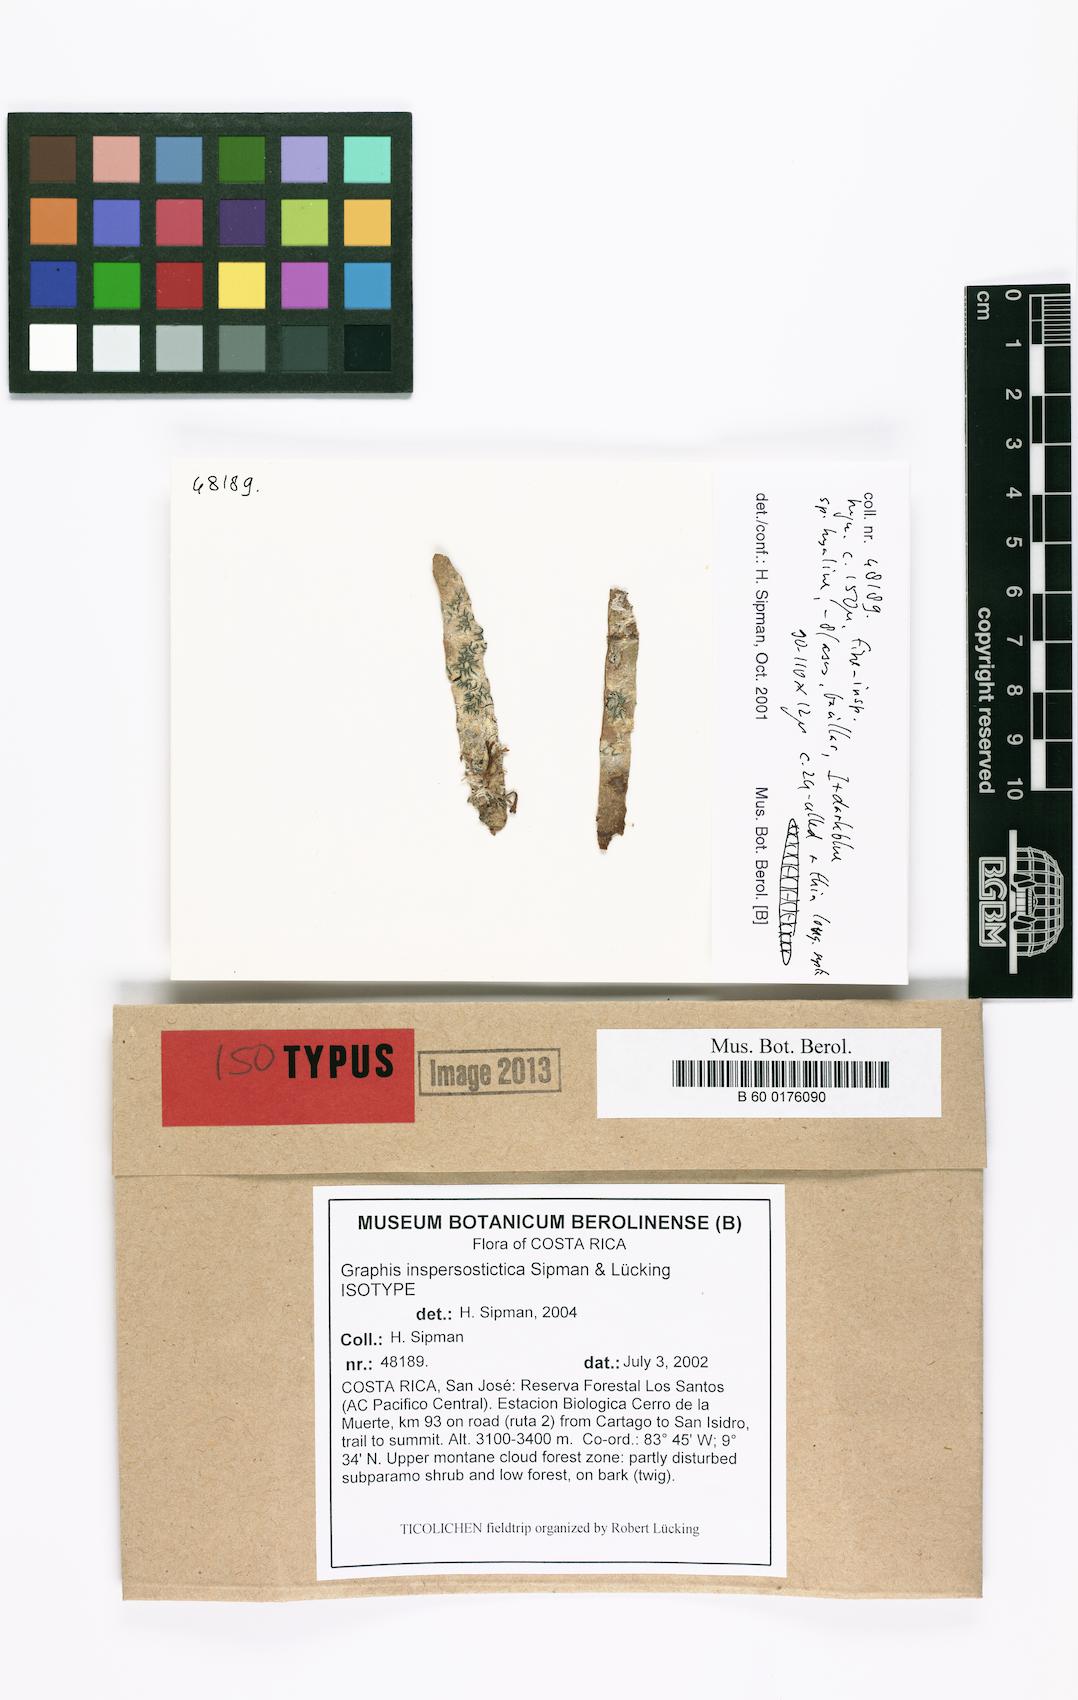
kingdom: Fungi
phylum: Ascomycota
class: Lecanoromycetes
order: Ostropales
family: Graphidaceae
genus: Allographa
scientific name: Allographa inspersostictica
